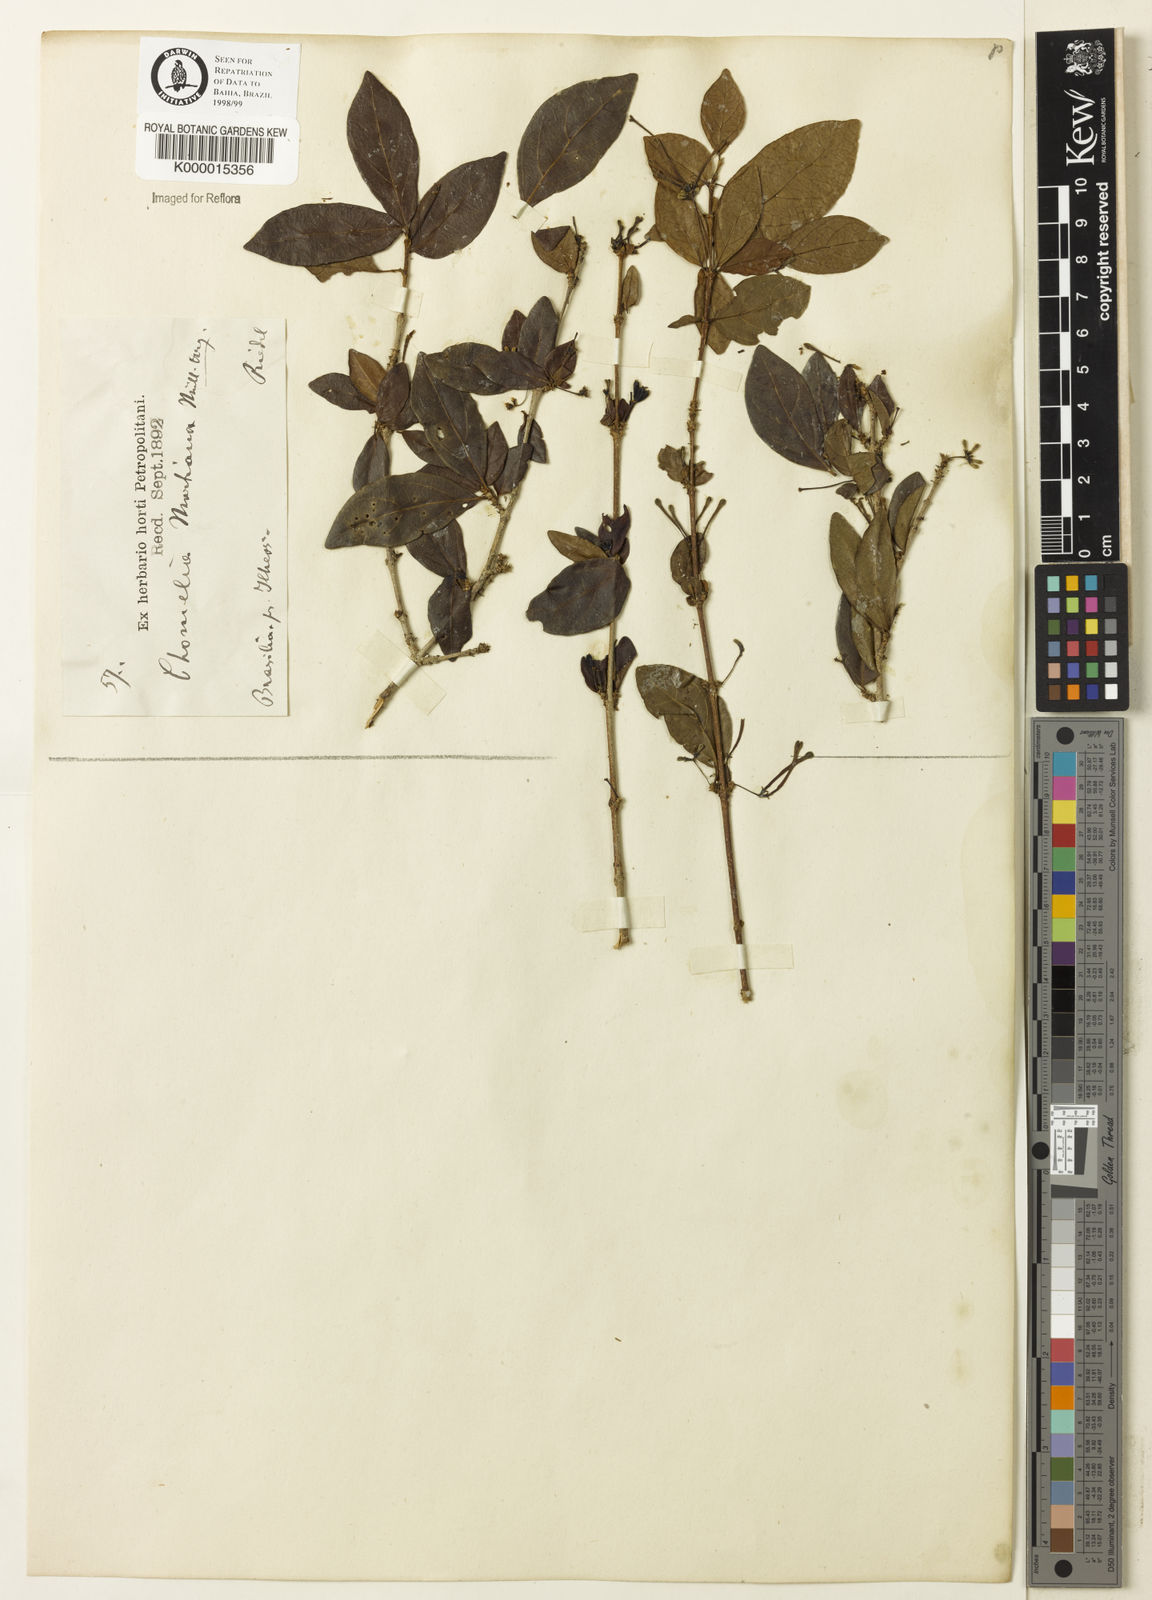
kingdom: Plantae
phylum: Tracheophyta
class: Magnoliopsida
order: Gentianales
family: Rubiaceae
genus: Chomelia
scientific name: Chomelia obtusa
